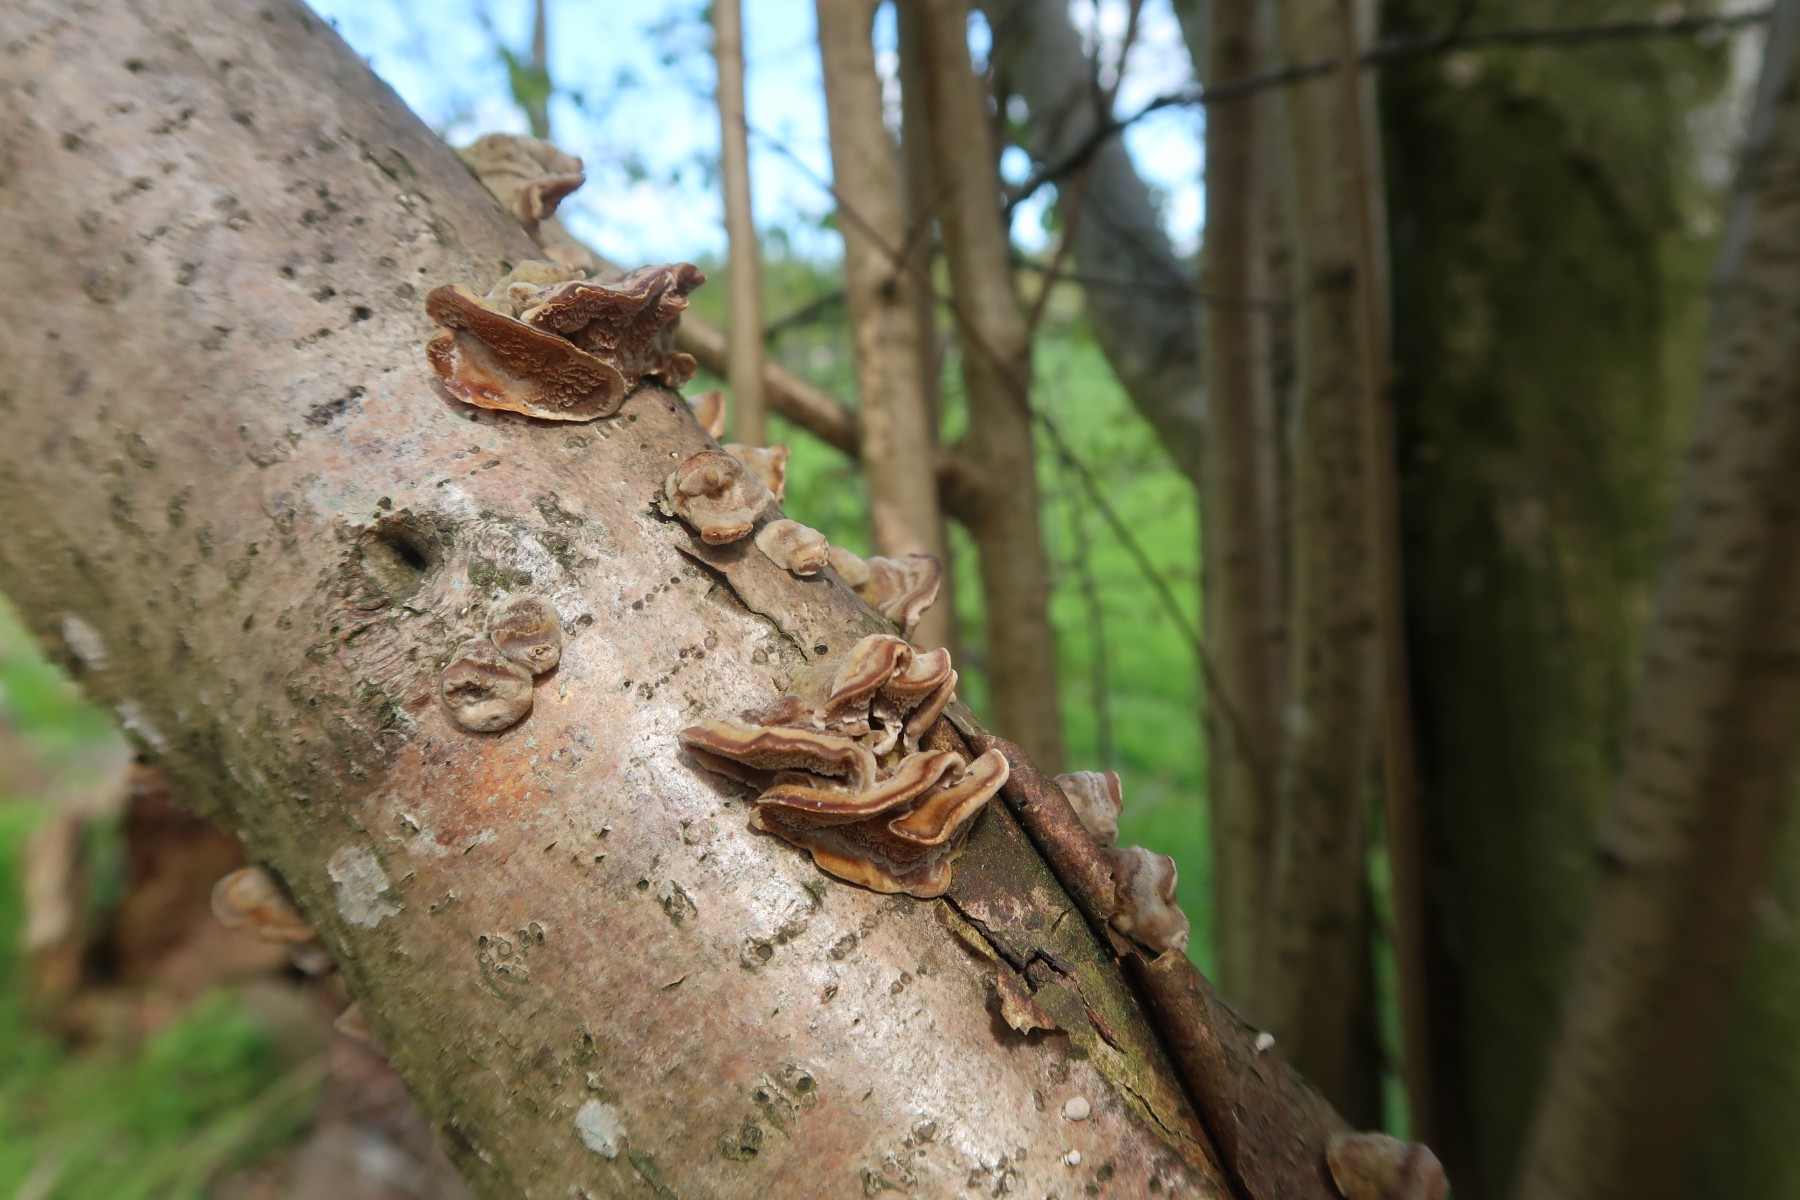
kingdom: Fungi
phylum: Basidiomycota
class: Agaricomycetes
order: Polyporales
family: Polyporaceae
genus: Trametes
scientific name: Trametes
